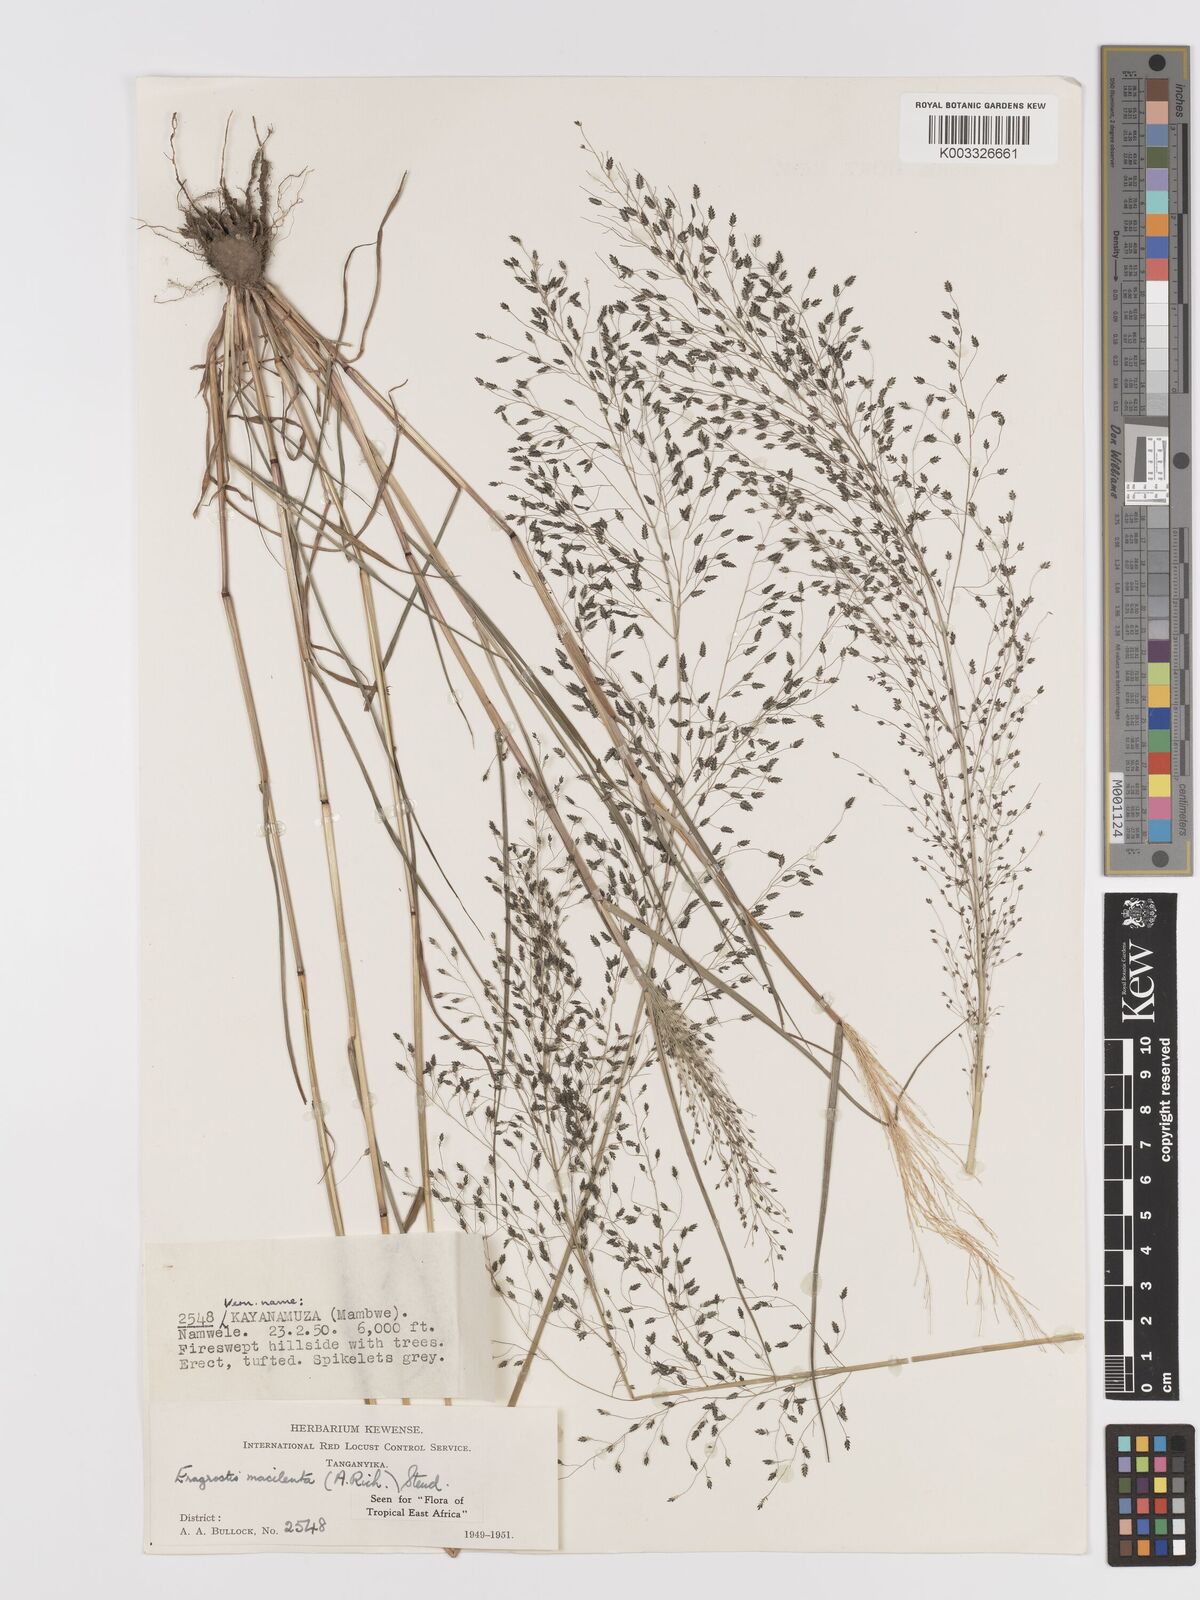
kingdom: Plantae
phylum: Tracheophyta
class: Liliopsida
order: Poales
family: Poaceae
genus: Eragrostis
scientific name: Eragrostis macilenta
